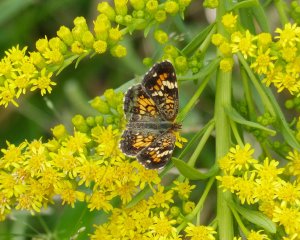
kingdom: Animalia
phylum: Arthropoda
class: Insecta
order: Lepidoptera
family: Nymphalidae
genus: Phyciodes
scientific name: Phyciodes phaon
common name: Phaon Crescent
